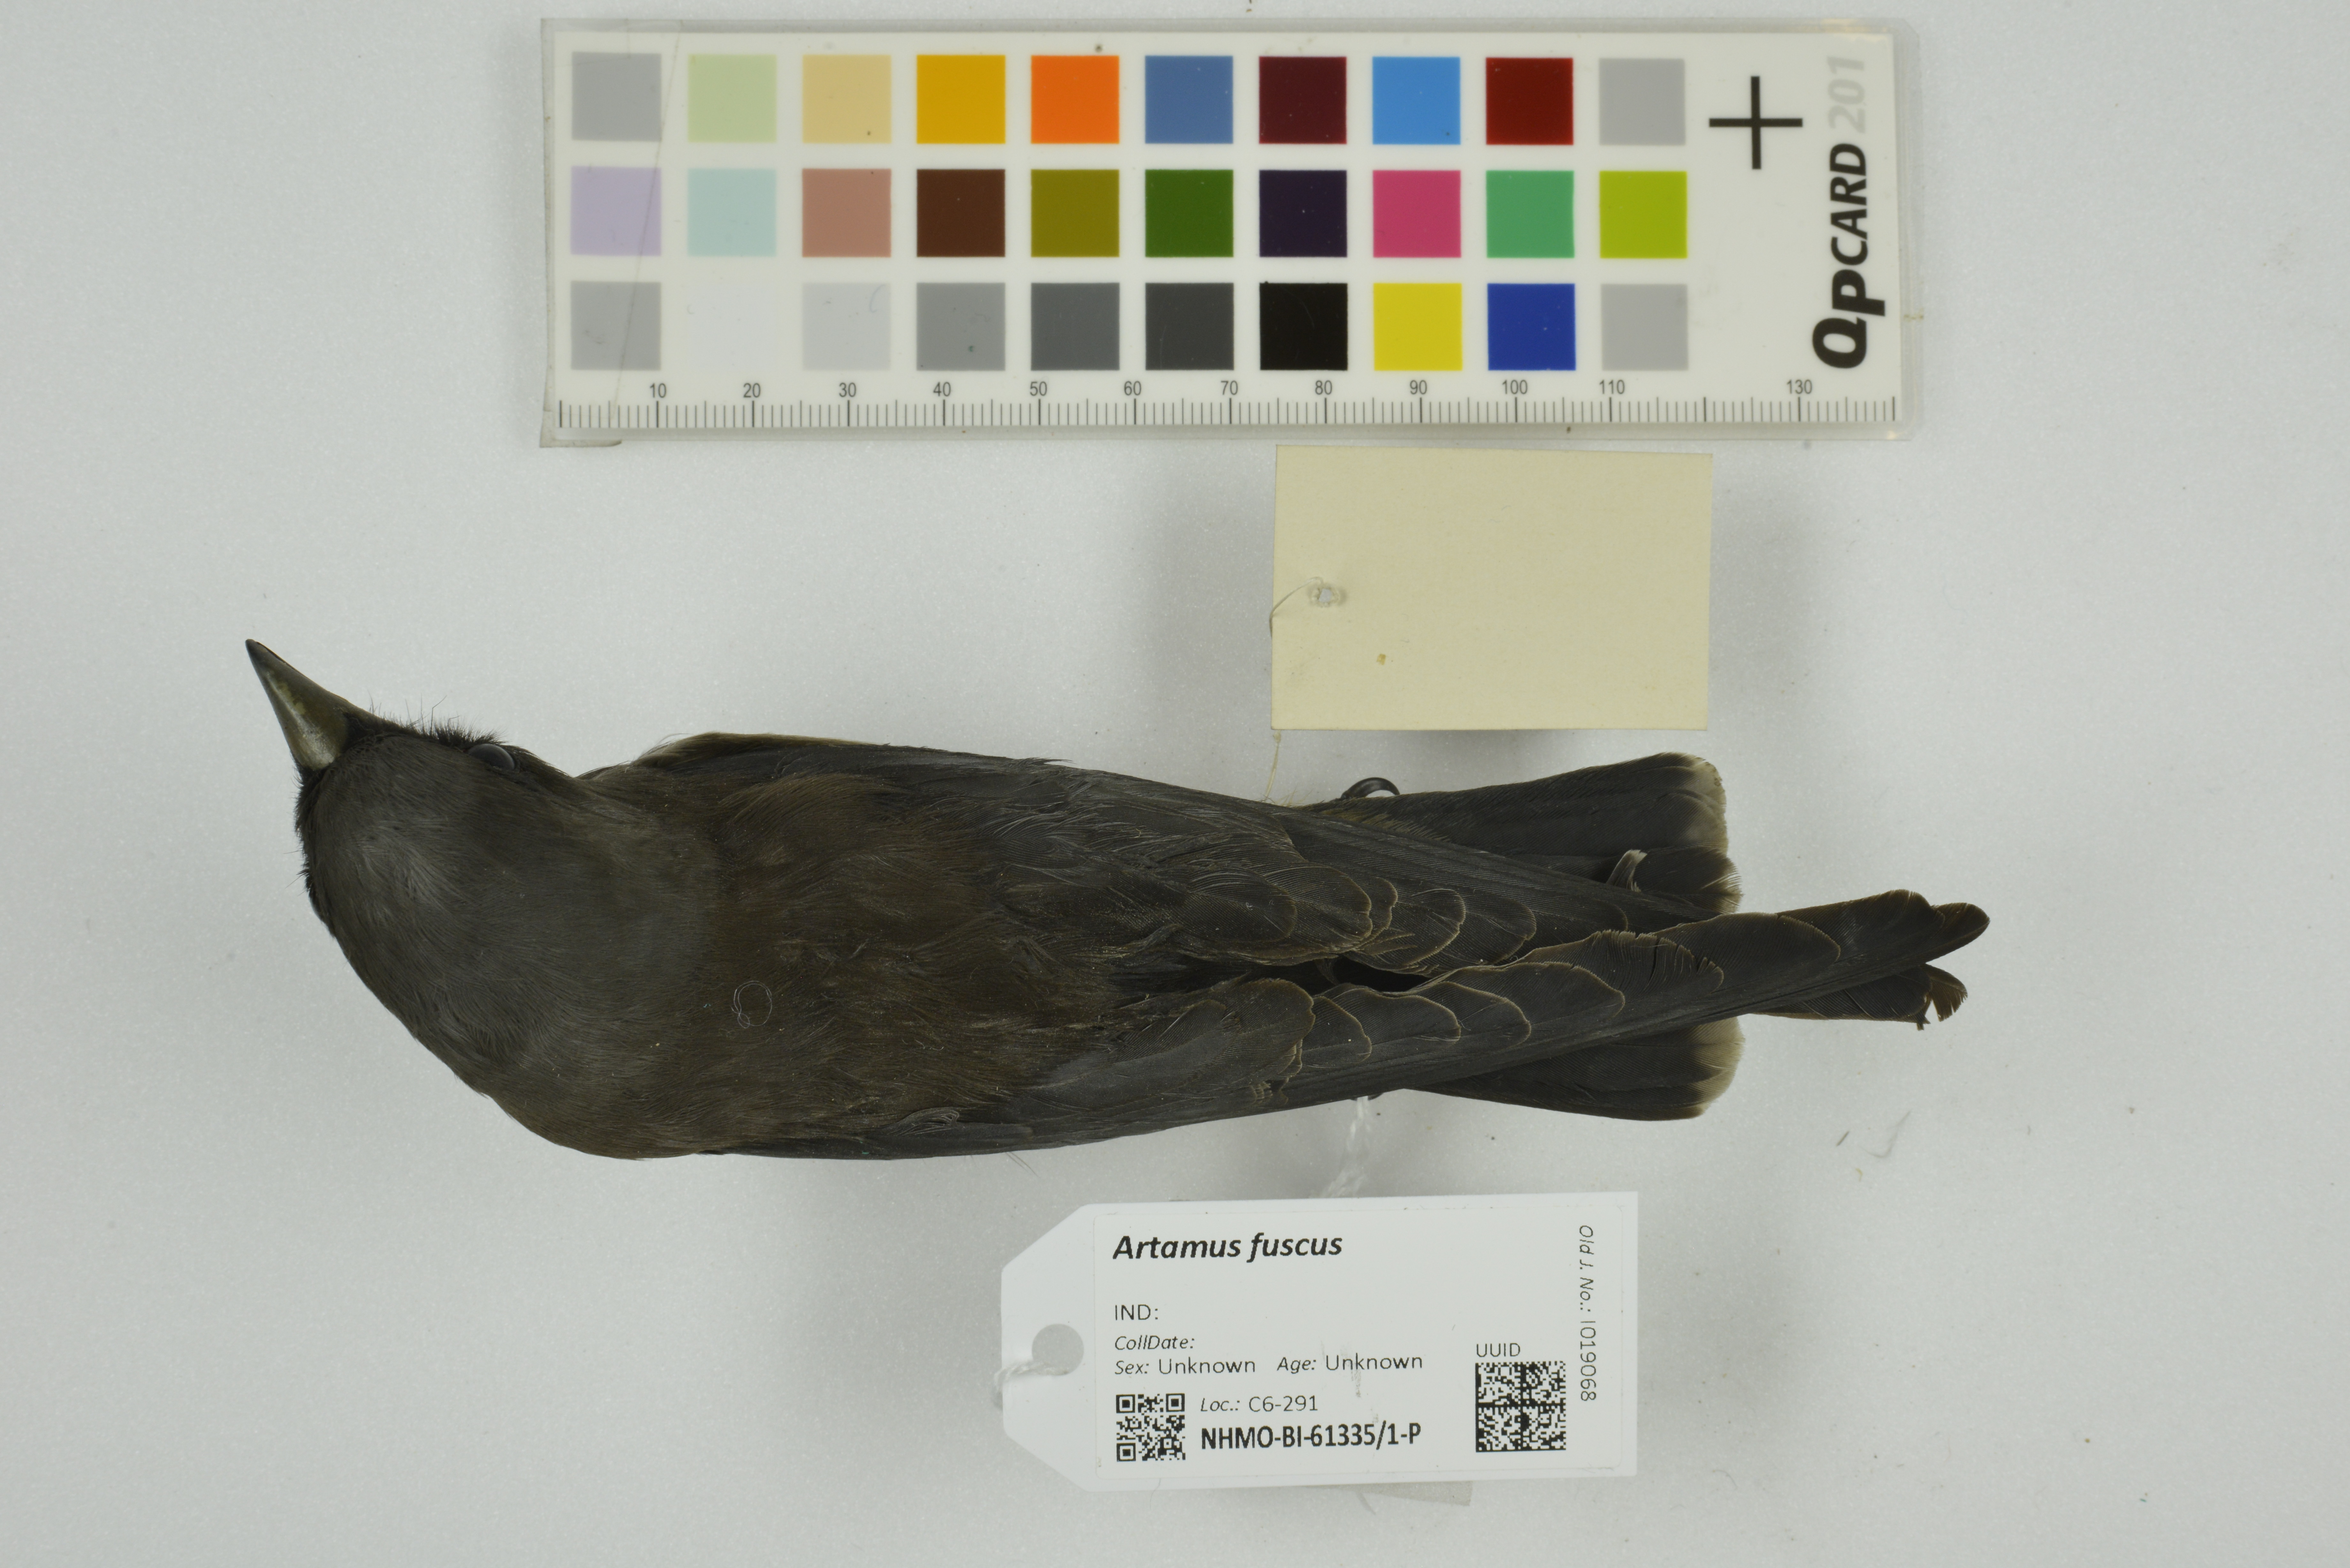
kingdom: Animalia
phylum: Chordata
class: Aves
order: Passeriformes
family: Artamidae
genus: Artamus
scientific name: Artamus fuscus
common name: Ashy woodswallow
